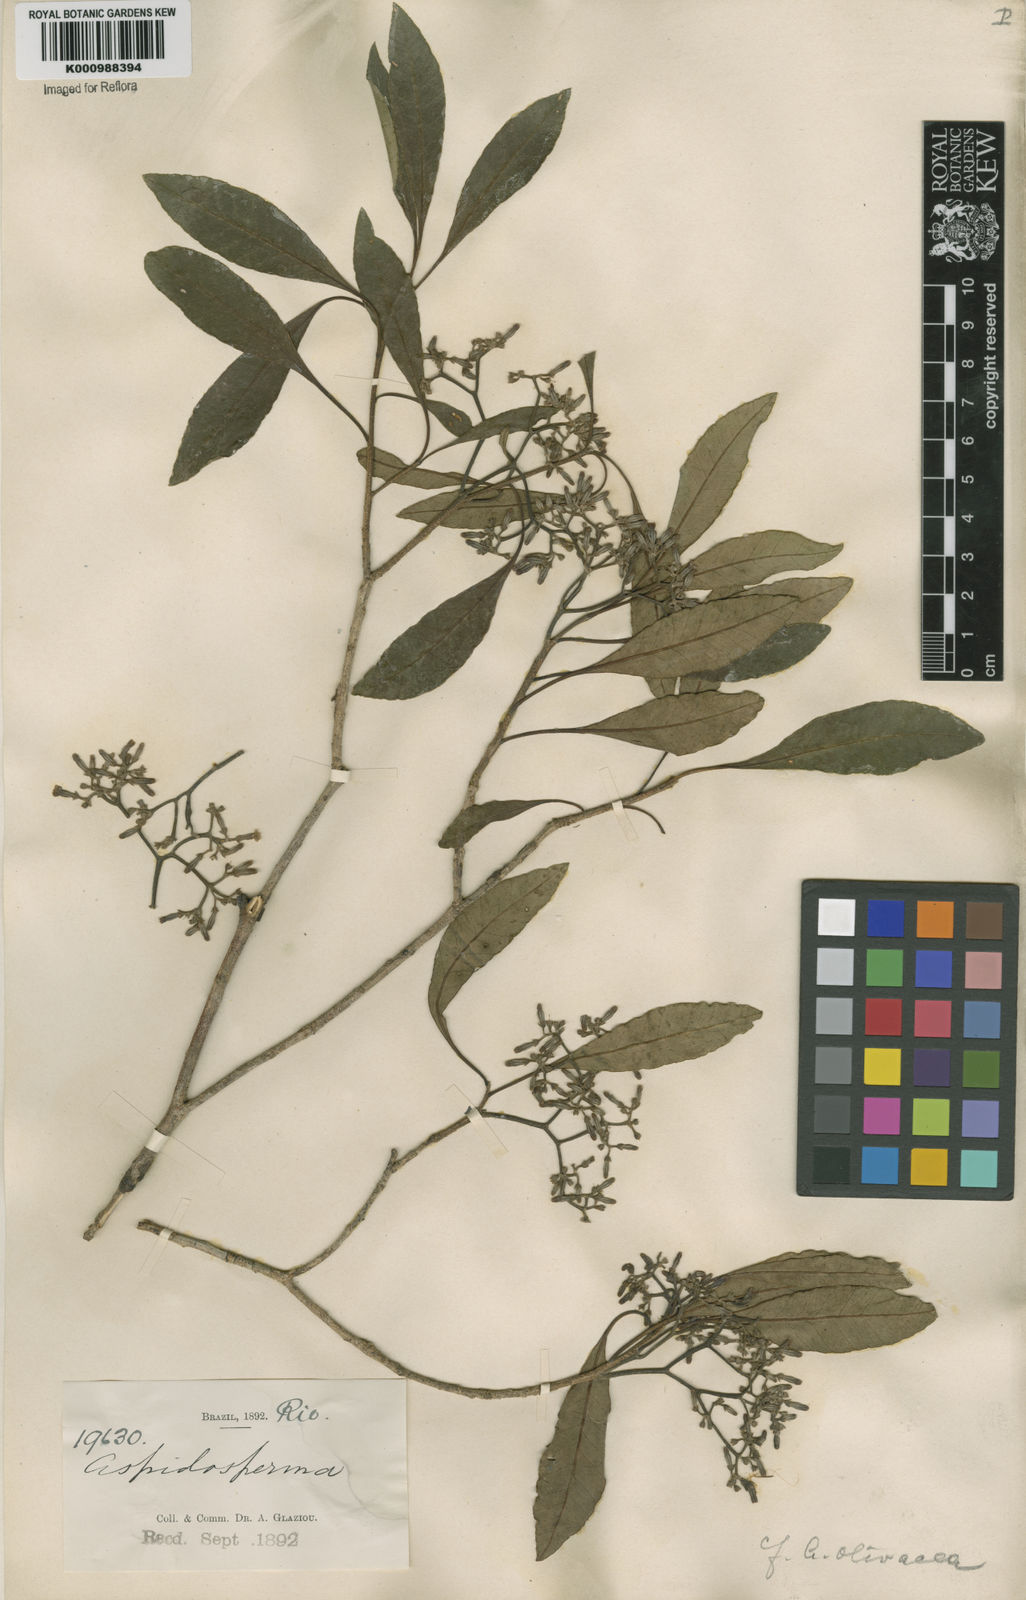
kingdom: Plantae
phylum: Tracheophyta
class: Magnoliopsida
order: Gentianales
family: Apocynaceae
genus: Aspidosperma
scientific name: Aspidosperma
